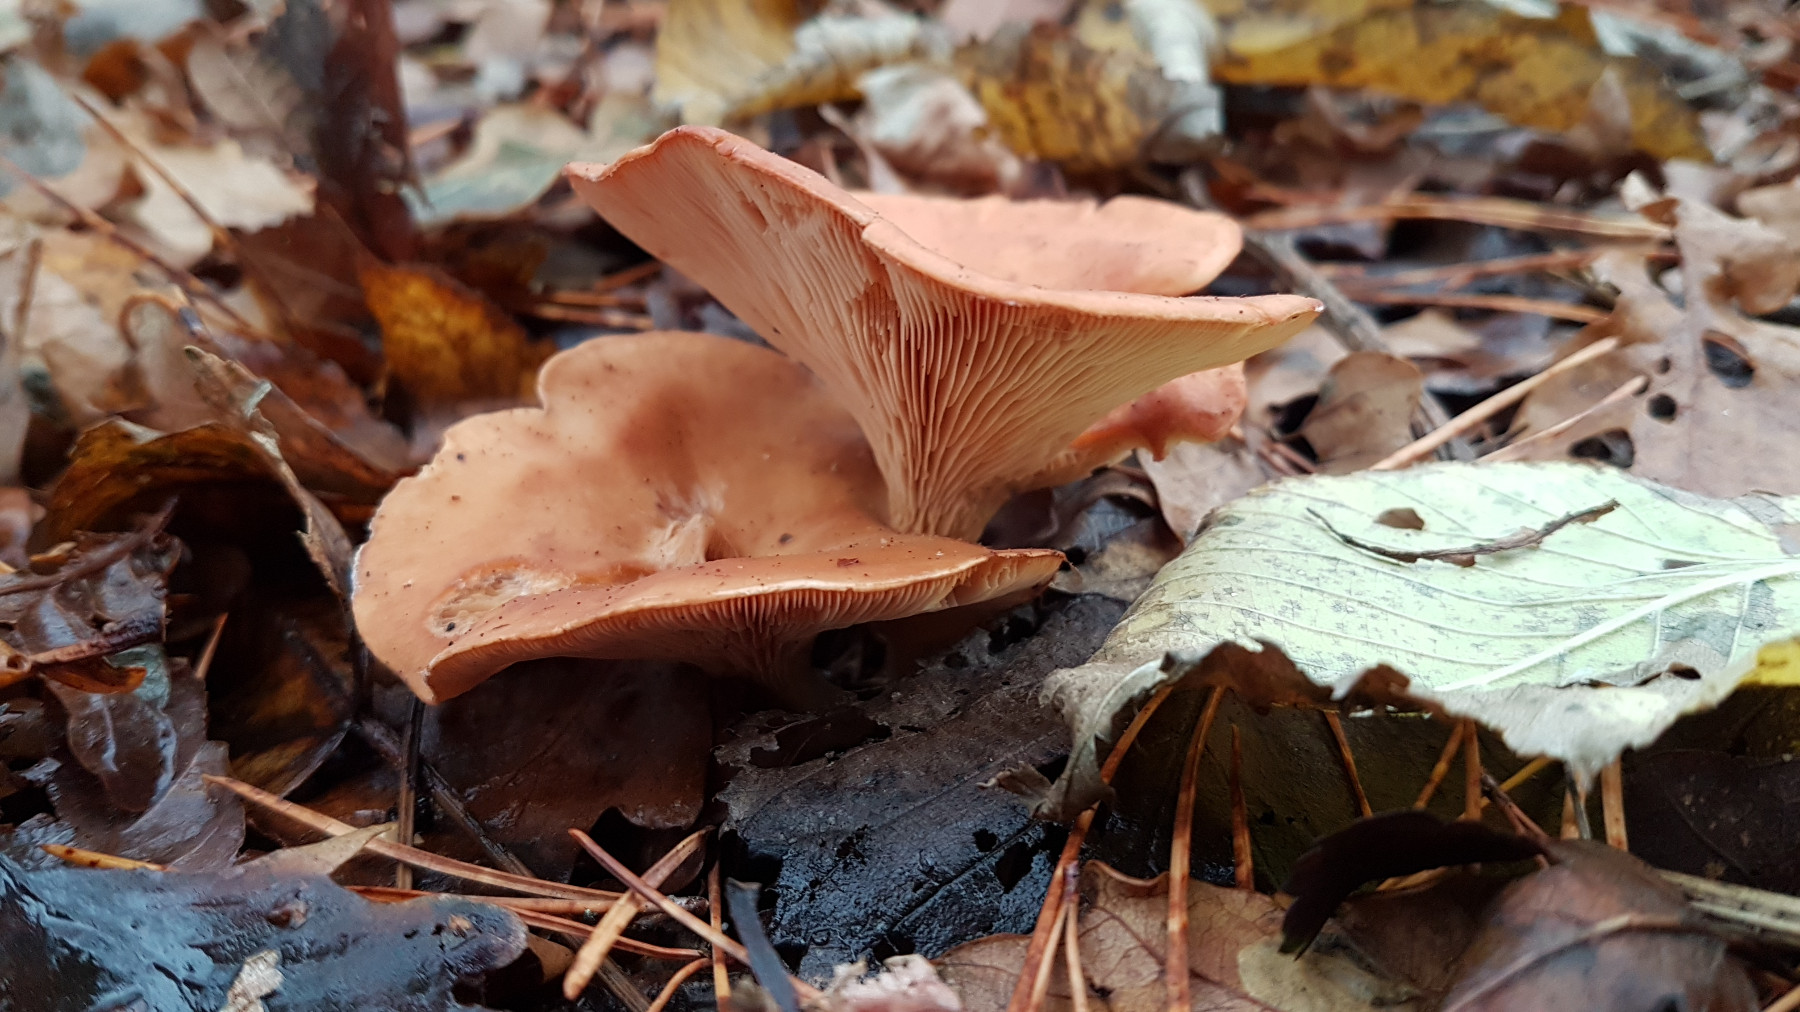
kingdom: Fungi
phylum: Basidiomycota
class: Agaricomycetes
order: Agaricales
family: Tricholomataceae
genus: Paralepista
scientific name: Paralepista flaccida
